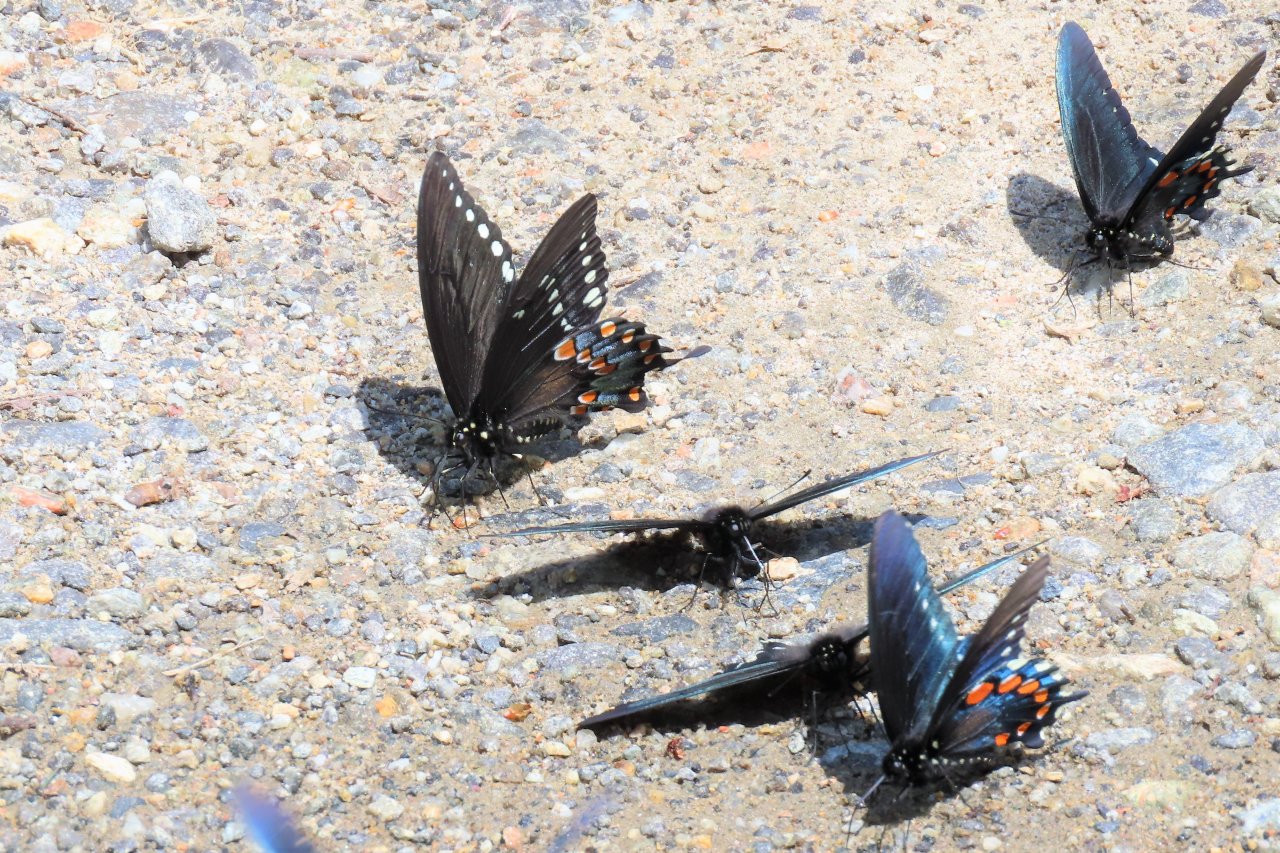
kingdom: Animalia
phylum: Arthropoda
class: Insecta
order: Lepidoptera
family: Papilionidae
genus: Battus
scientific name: Battus philenor
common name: Pipevine Swallowtail
